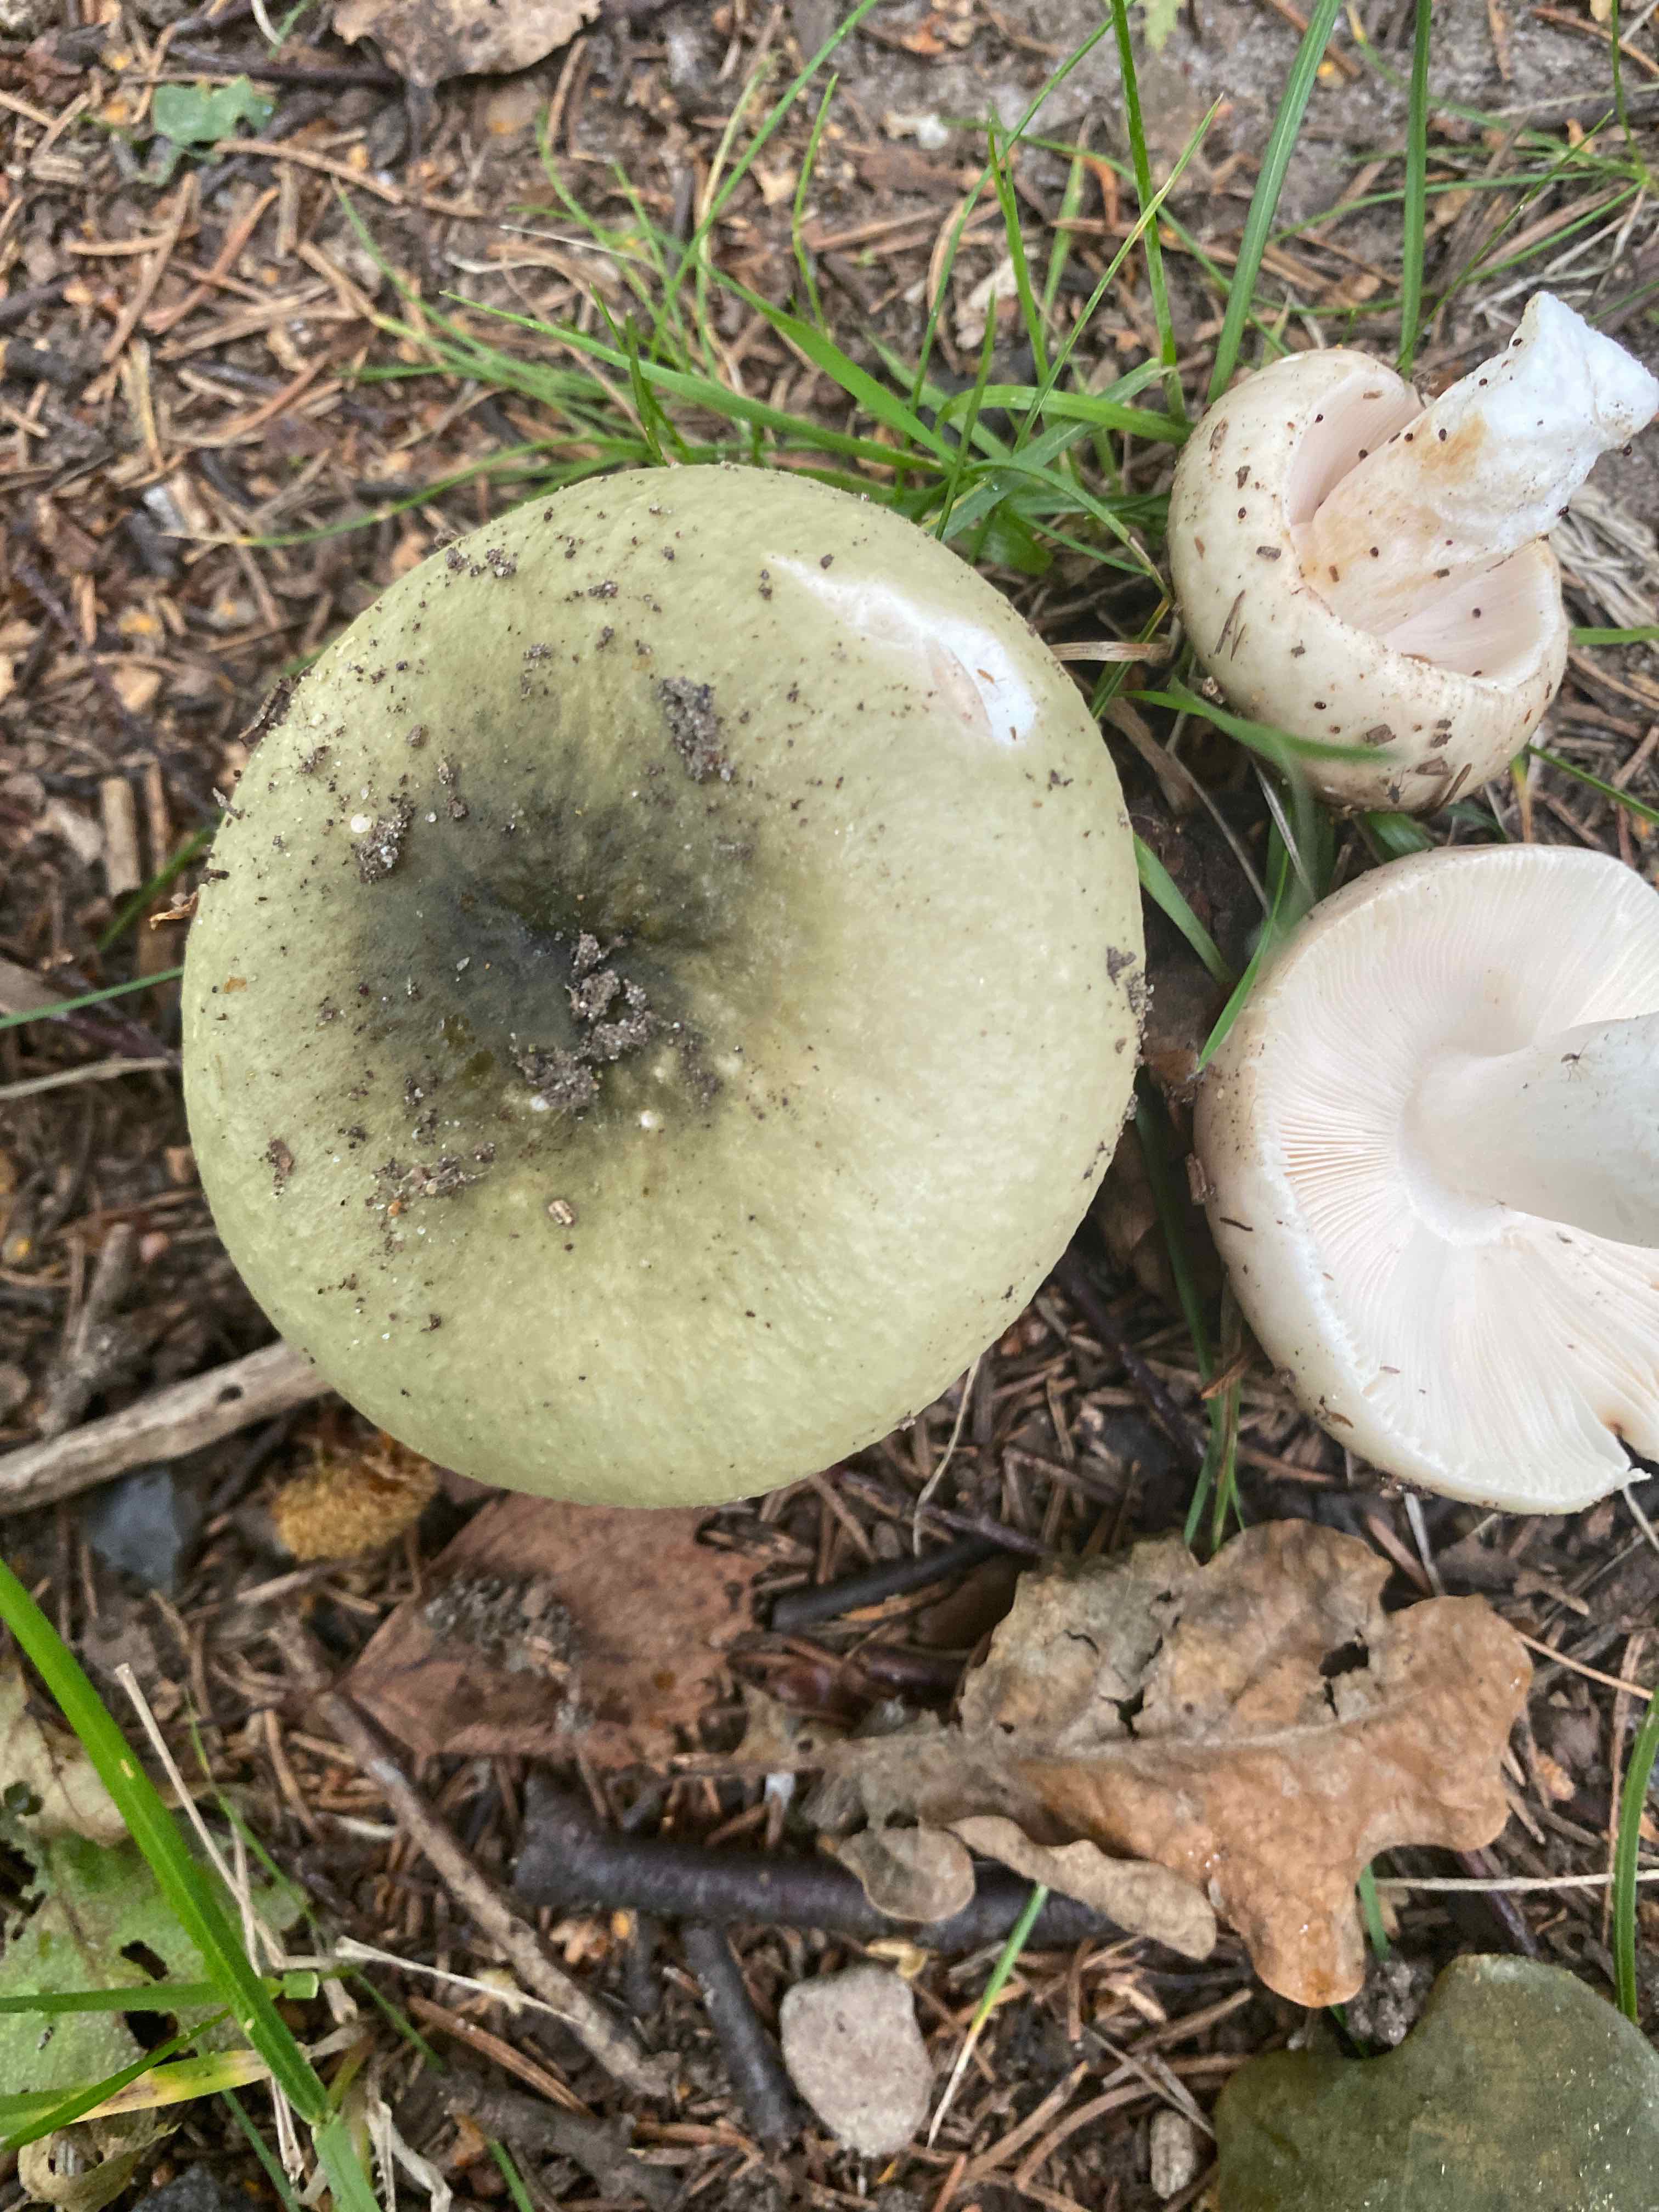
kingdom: Fungi
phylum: Basidiomycota
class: Agaricomycetes
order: Russulales
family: Russulaceae
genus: Russula
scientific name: Russula aeruginea
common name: græsgrøn skørhat
